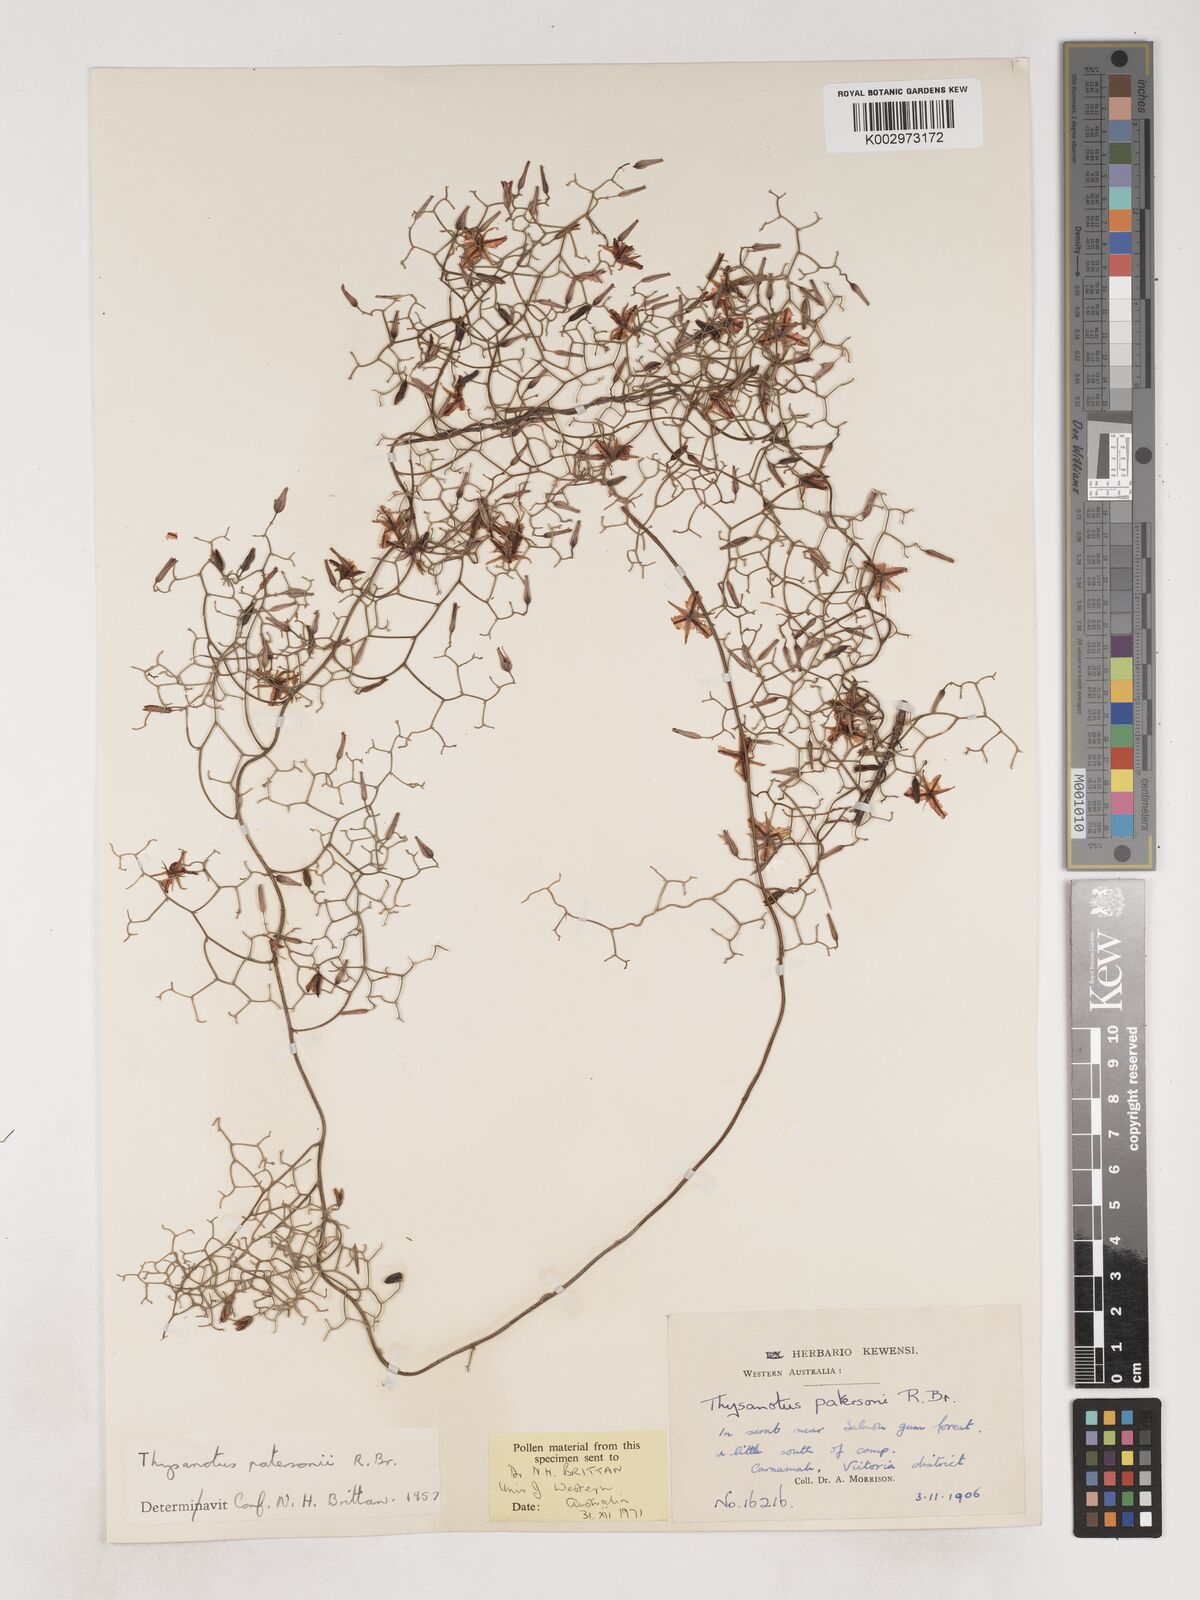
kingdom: Plantae
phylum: Tracheophyta
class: Liliopsida
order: Asparagales
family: Asparagaceae
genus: Thysanotus
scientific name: Thysanotus patersonii
